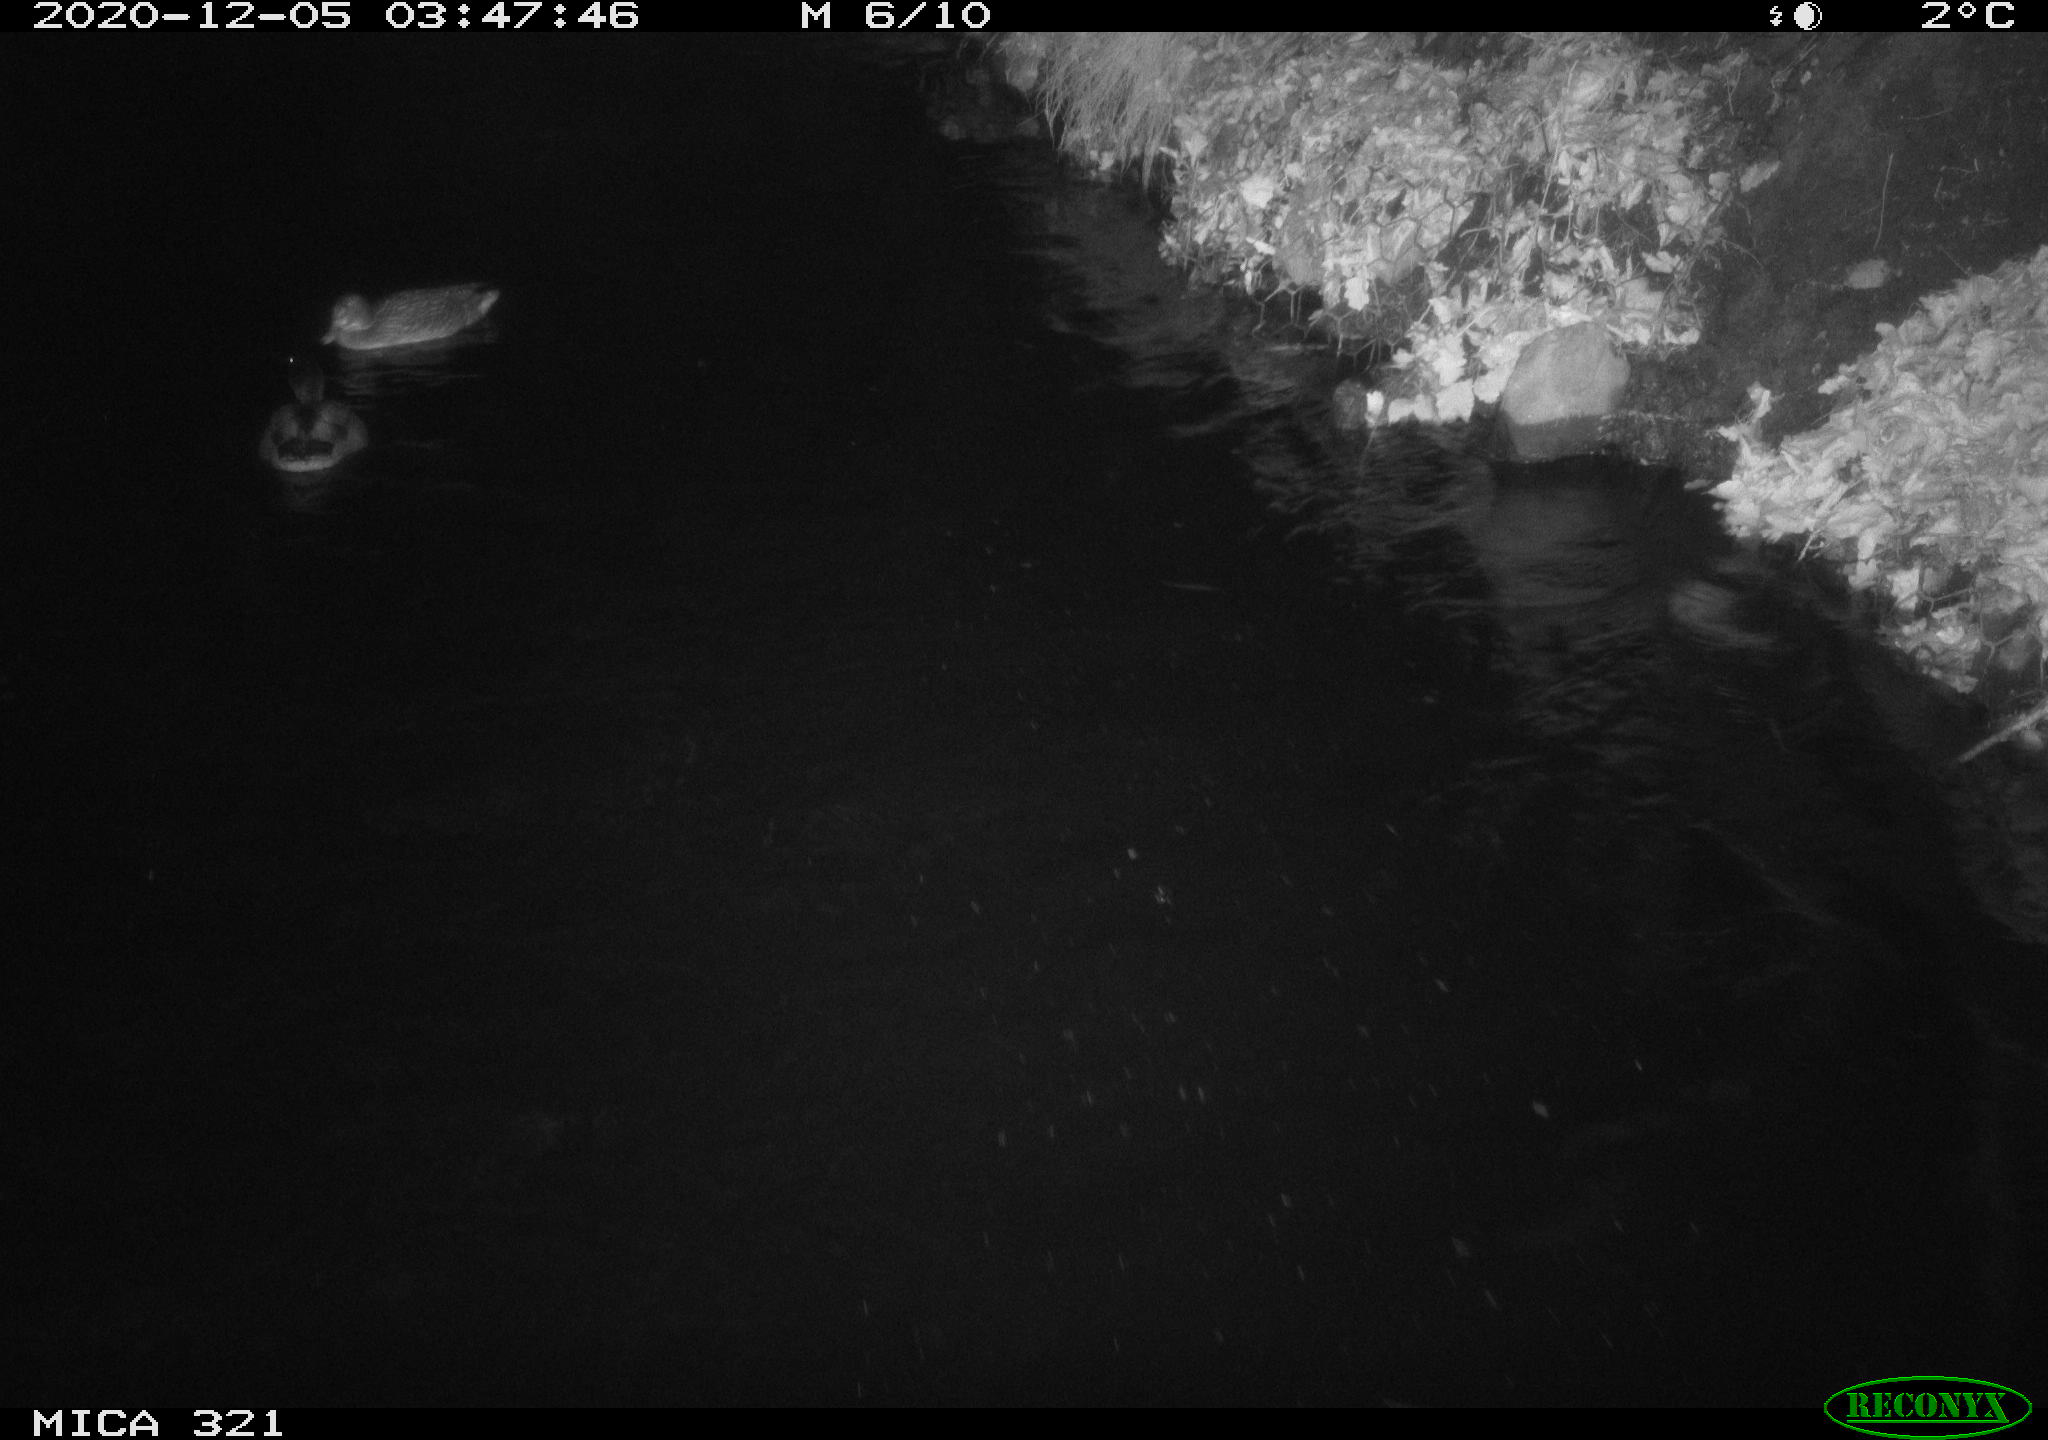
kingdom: Animalia
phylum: Chordata
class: Aves
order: Anseriformes
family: Anatidae
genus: Anas
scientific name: Anas platyrhynchos
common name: Mallard
